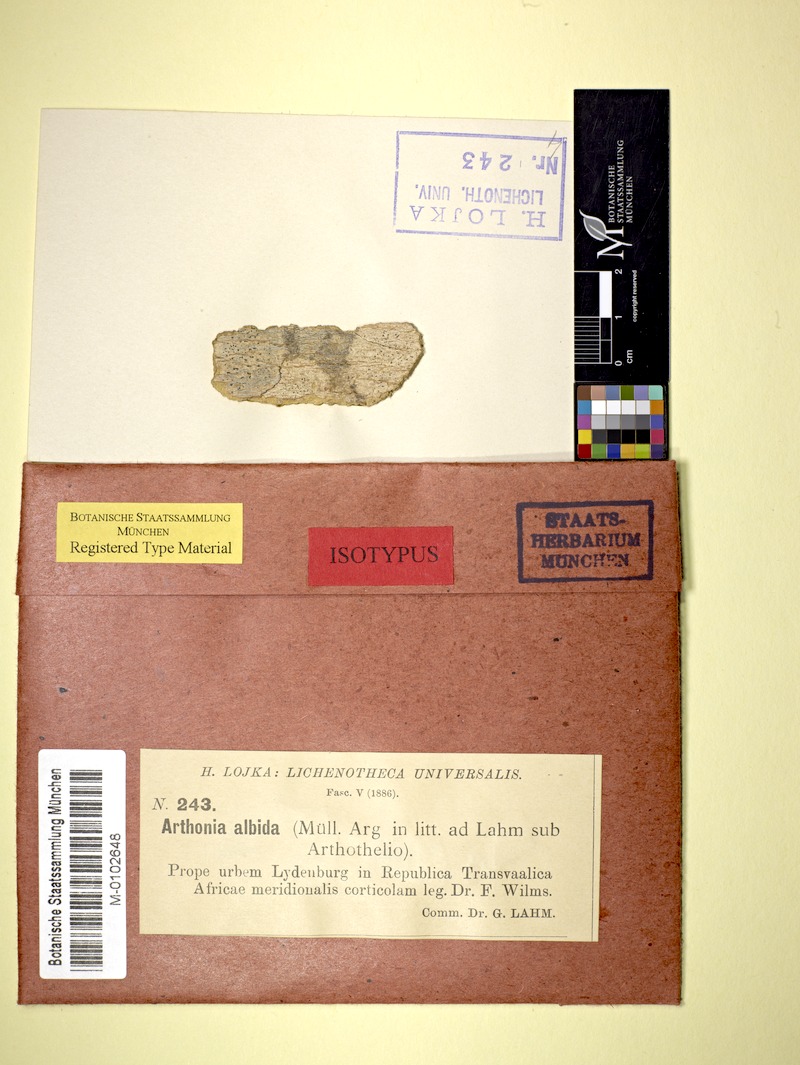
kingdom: Fungi
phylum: Ascomycota
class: Arthoniomycetes
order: Arthoniales
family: Arthoniaceae
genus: Arthothelium
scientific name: Arthothelium
